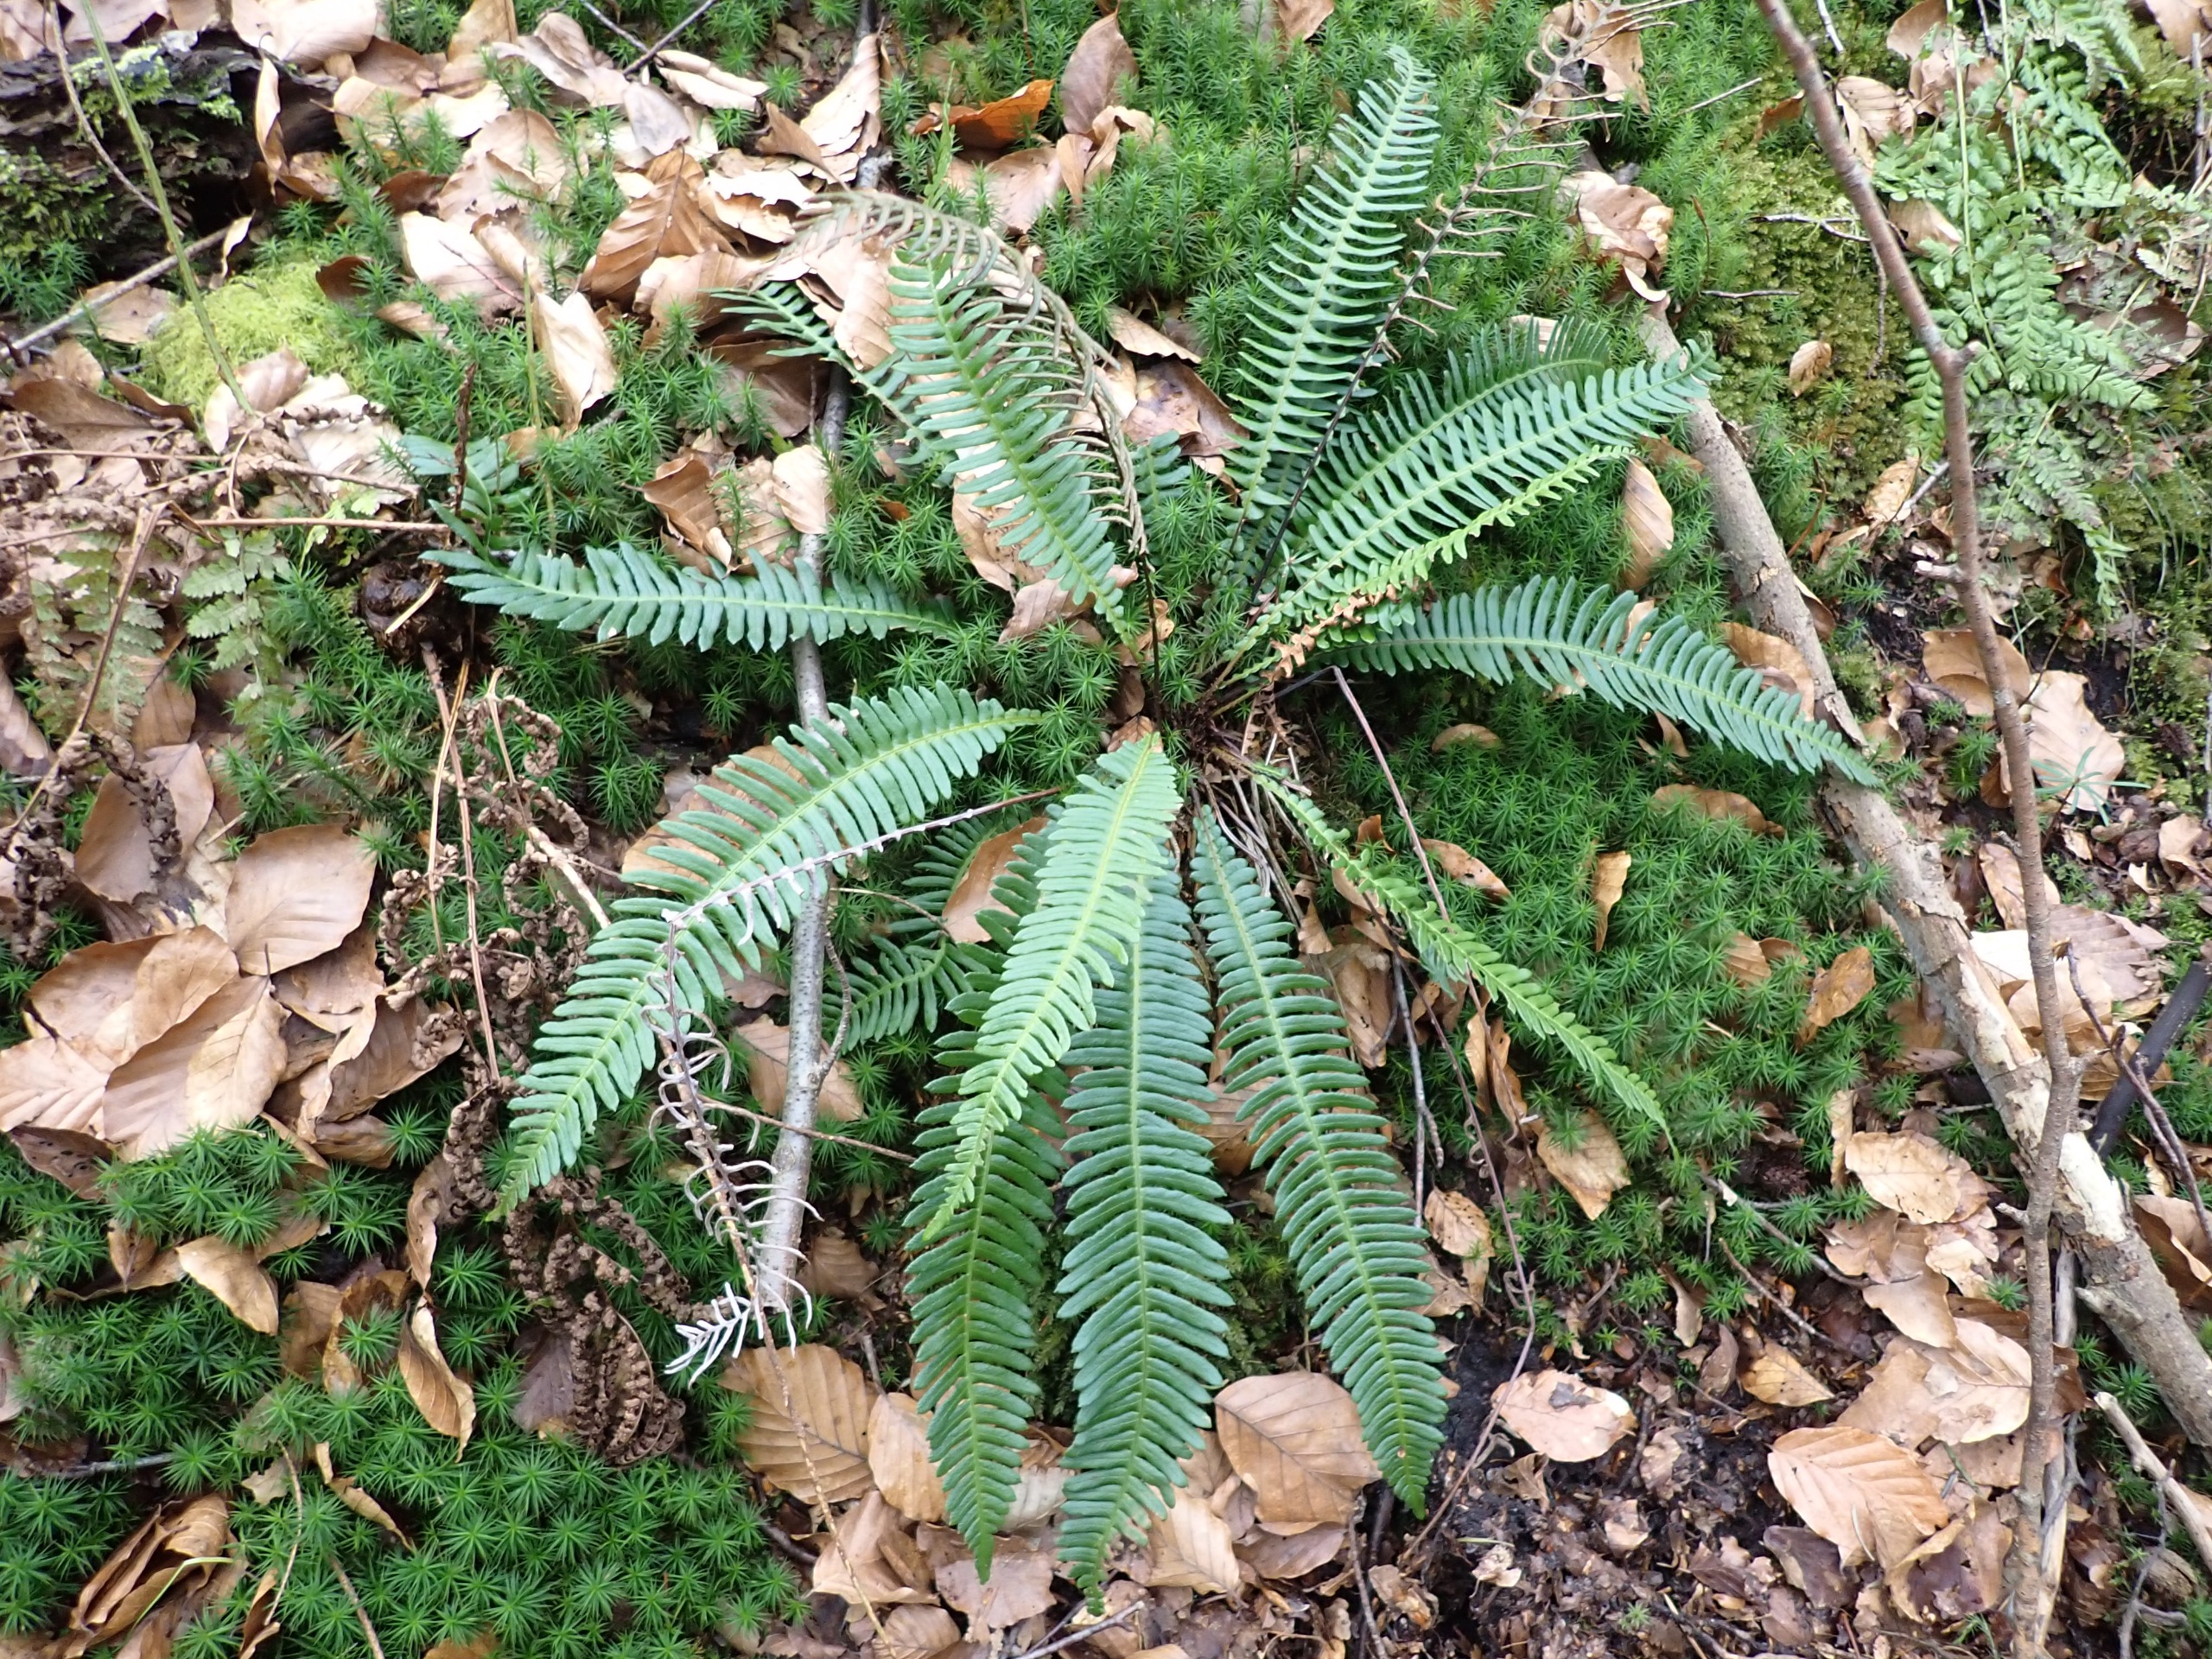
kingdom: Plantae
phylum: Tracheophyta
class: Polypodiopsida
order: Polypodiales
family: Blechnaceae
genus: Struthiopteris
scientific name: Struthiopteris spicant
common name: Kambregne
